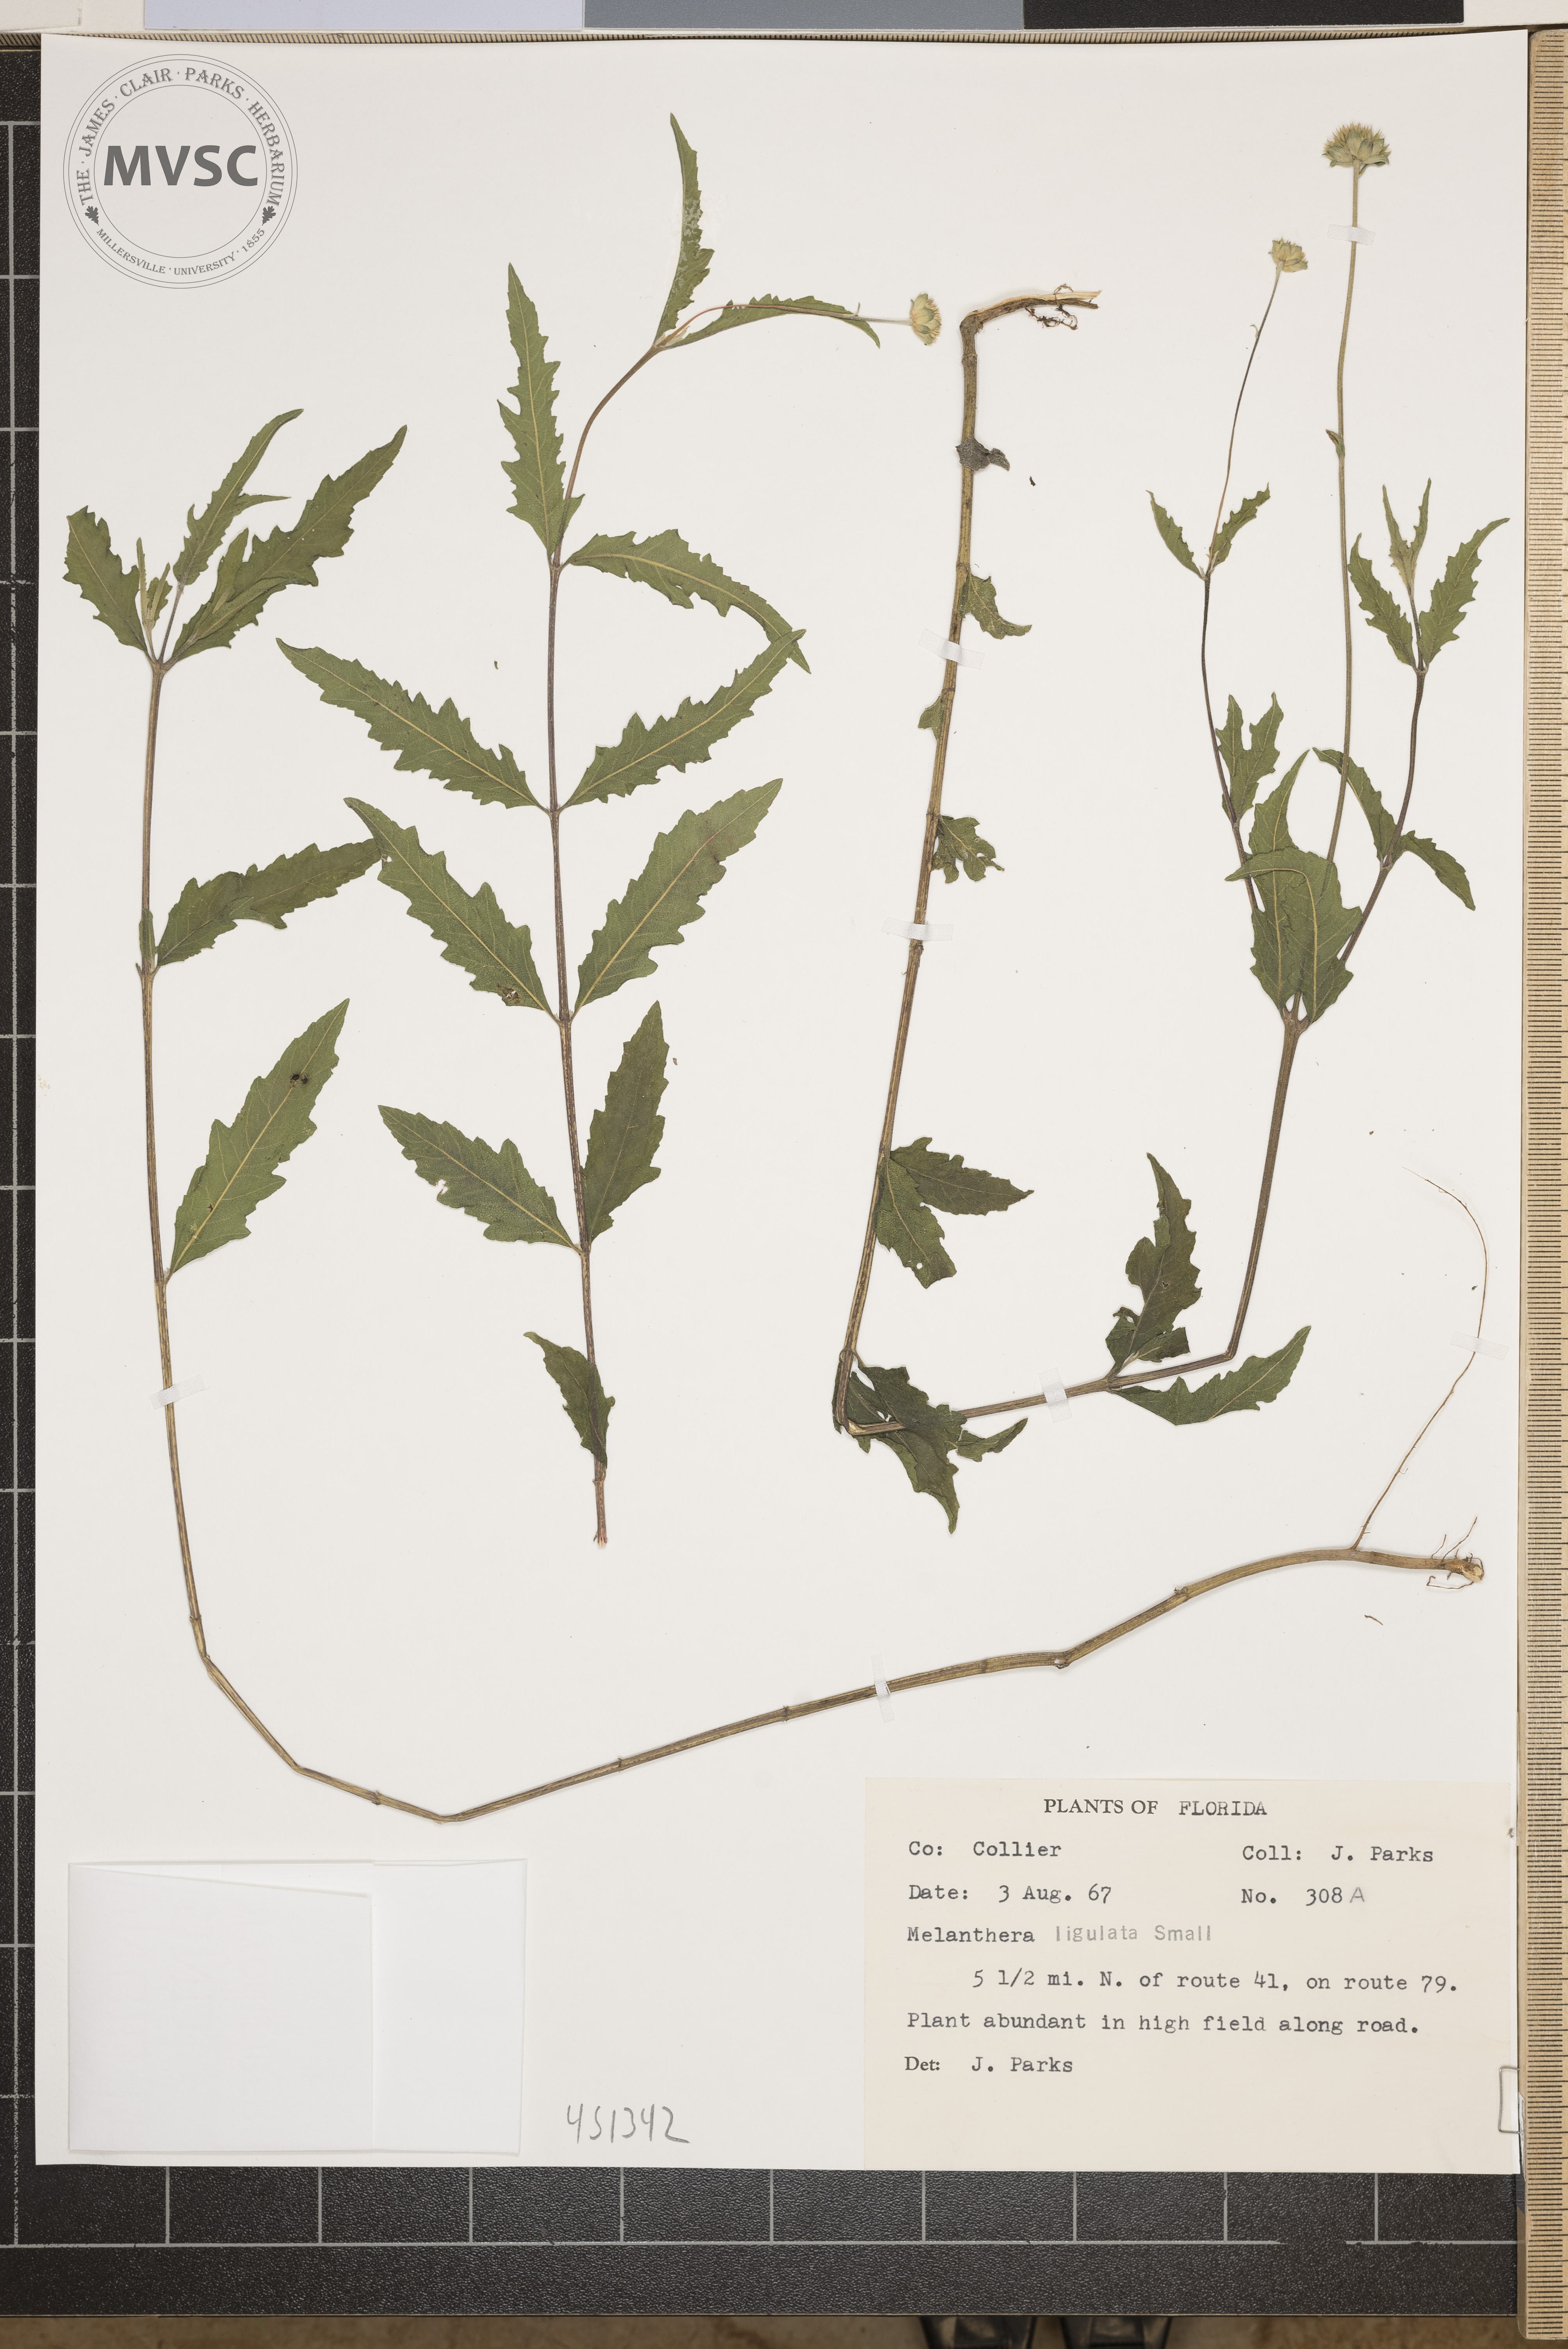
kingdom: Plantae
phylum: Tracheophyta
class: Magnoliopsida
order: Asterales
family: Asteraceae
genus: Melanthera
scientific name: Melanthera nivea
